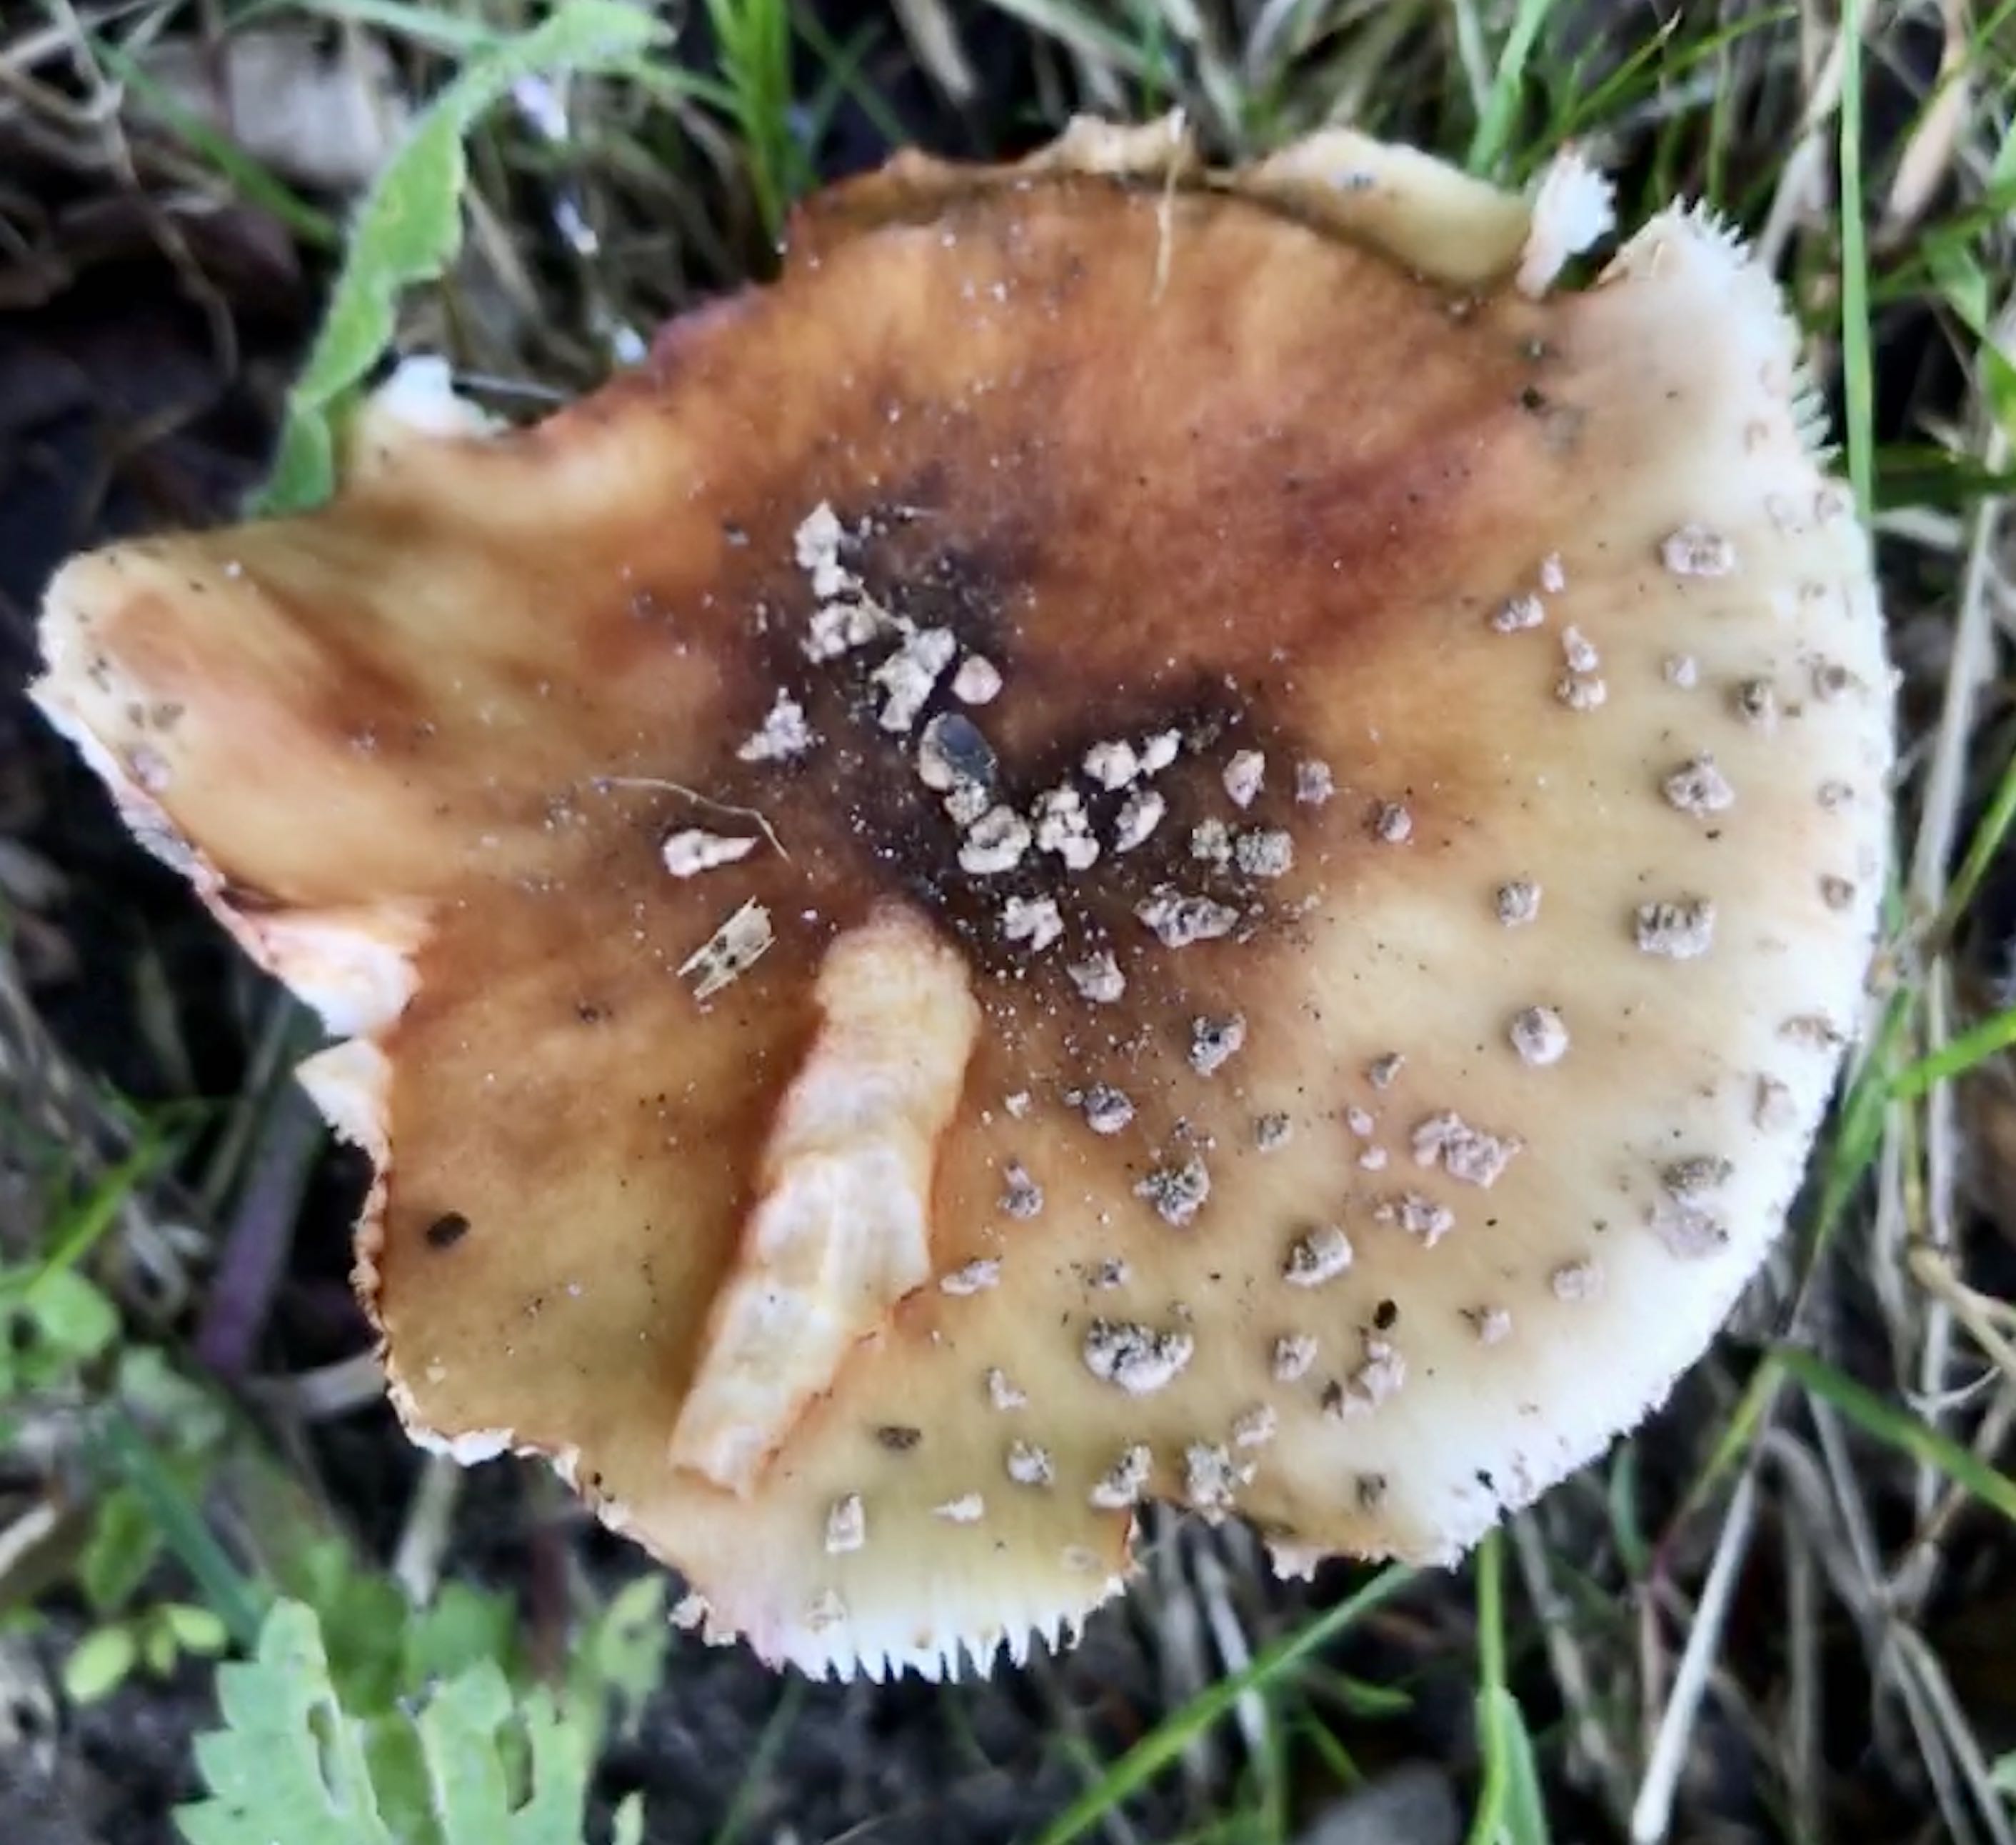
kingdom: Fungi
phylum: Basidiomycota
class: Agaricomycetes
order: Agaricales
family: Amanitaceae
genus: Amanita
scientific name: Amanita rubescens
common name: rødmende fluesvamp
